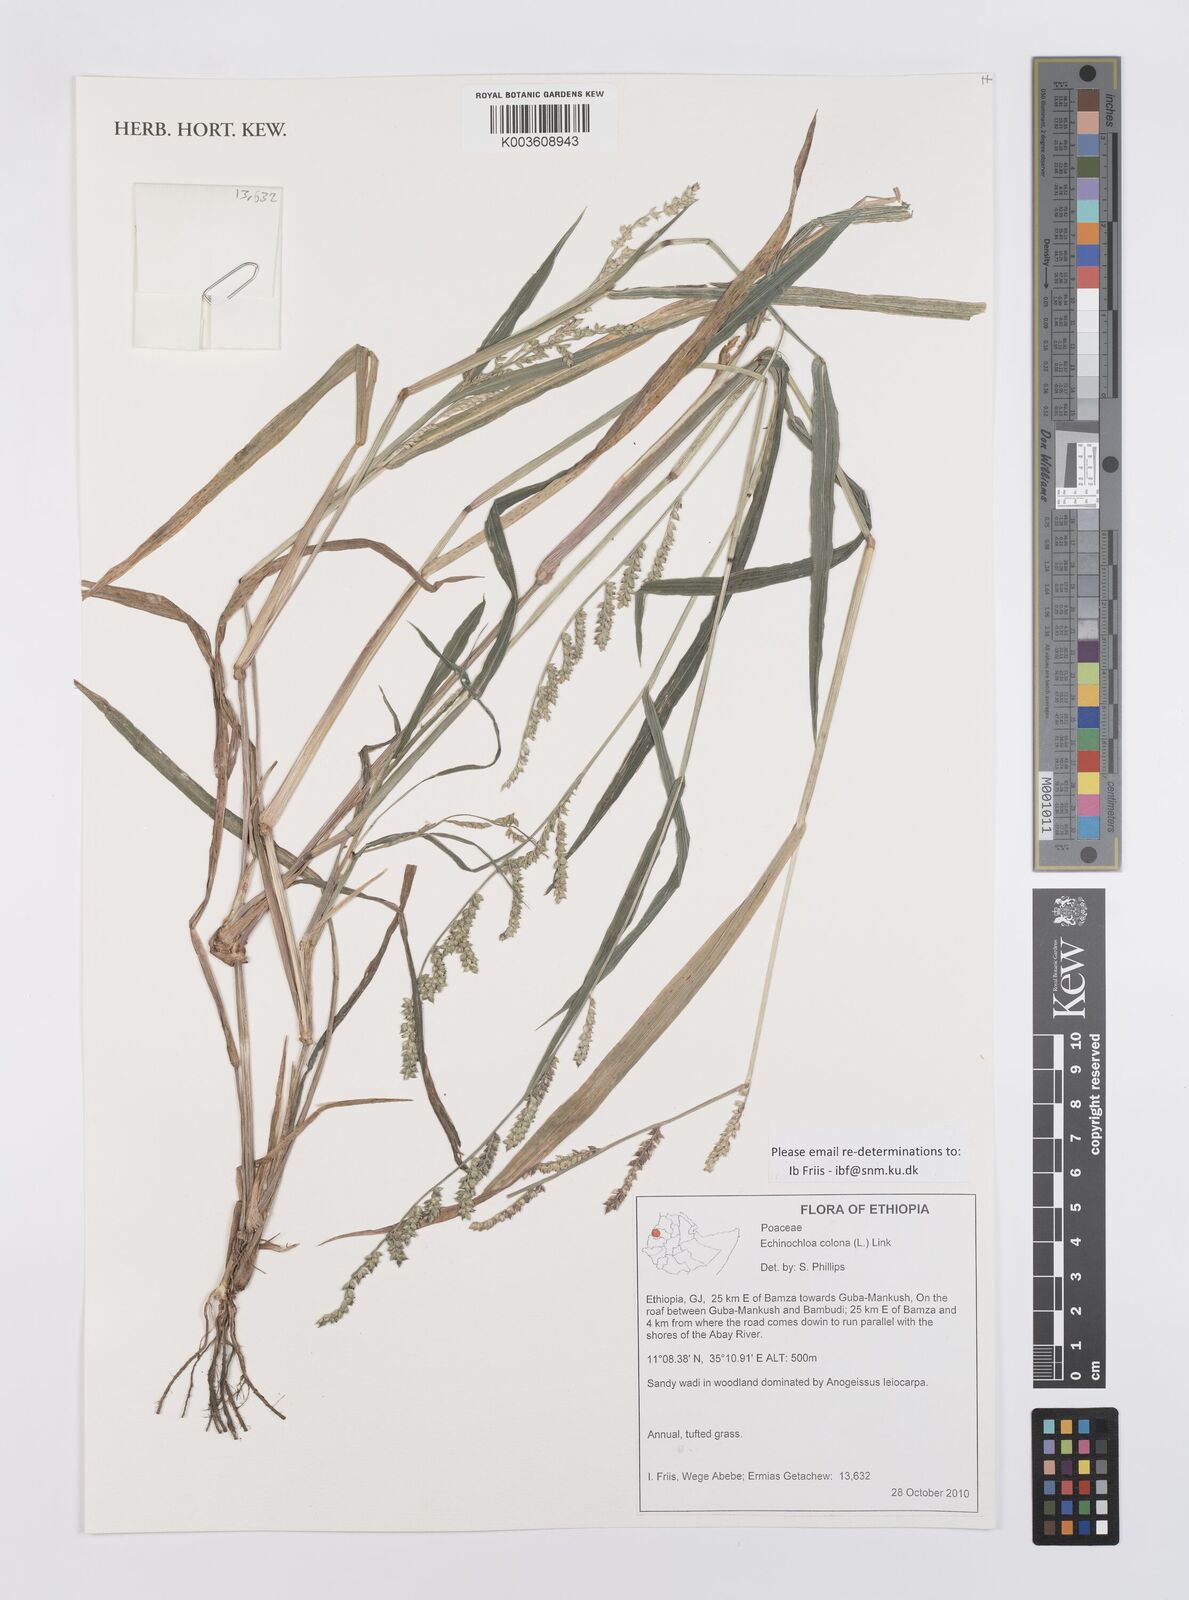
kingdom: Plantae
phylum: Tracheophyta
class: Liliopsida
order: Poales
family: Poaceae
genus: Echinochloa
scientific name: Echinochloa colonum
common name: Jungle rice
